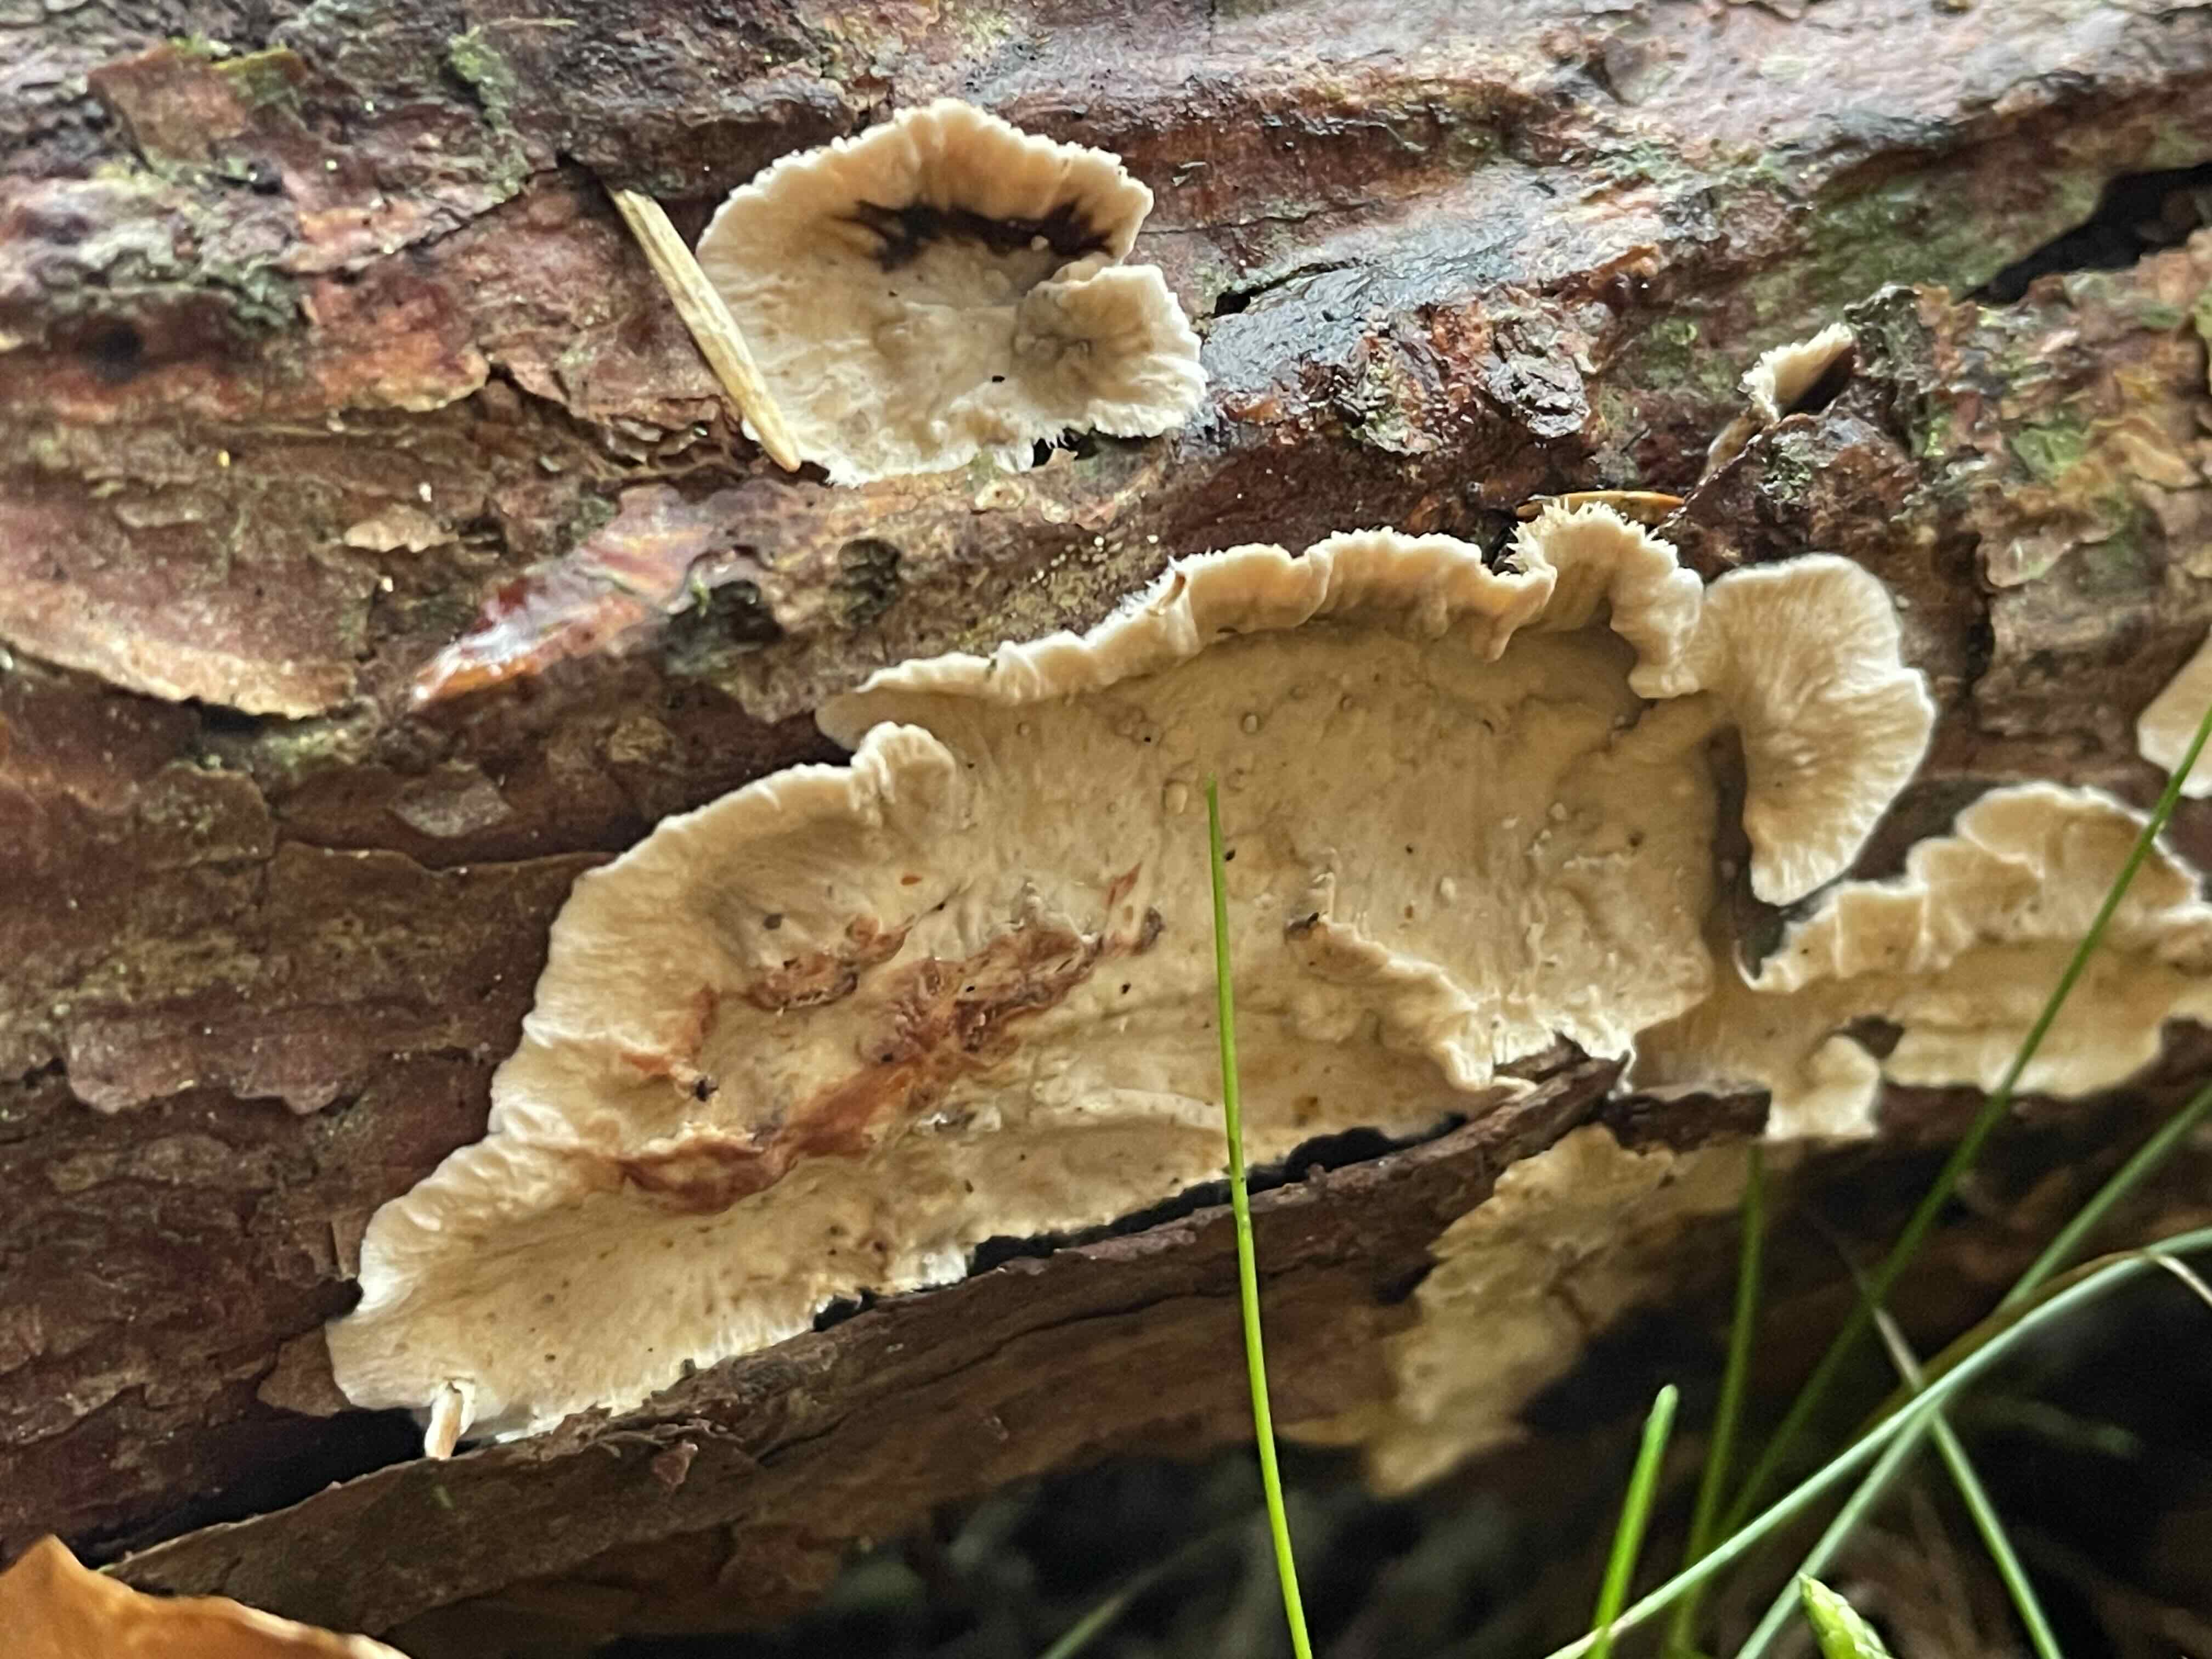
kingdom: Fungi
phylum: Basidiomycota
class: Agaricomycetes
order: Russulales
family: Stereaceae
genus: Stereum
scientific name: Stereum sanguinolentum
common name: blødende lædersvamp
